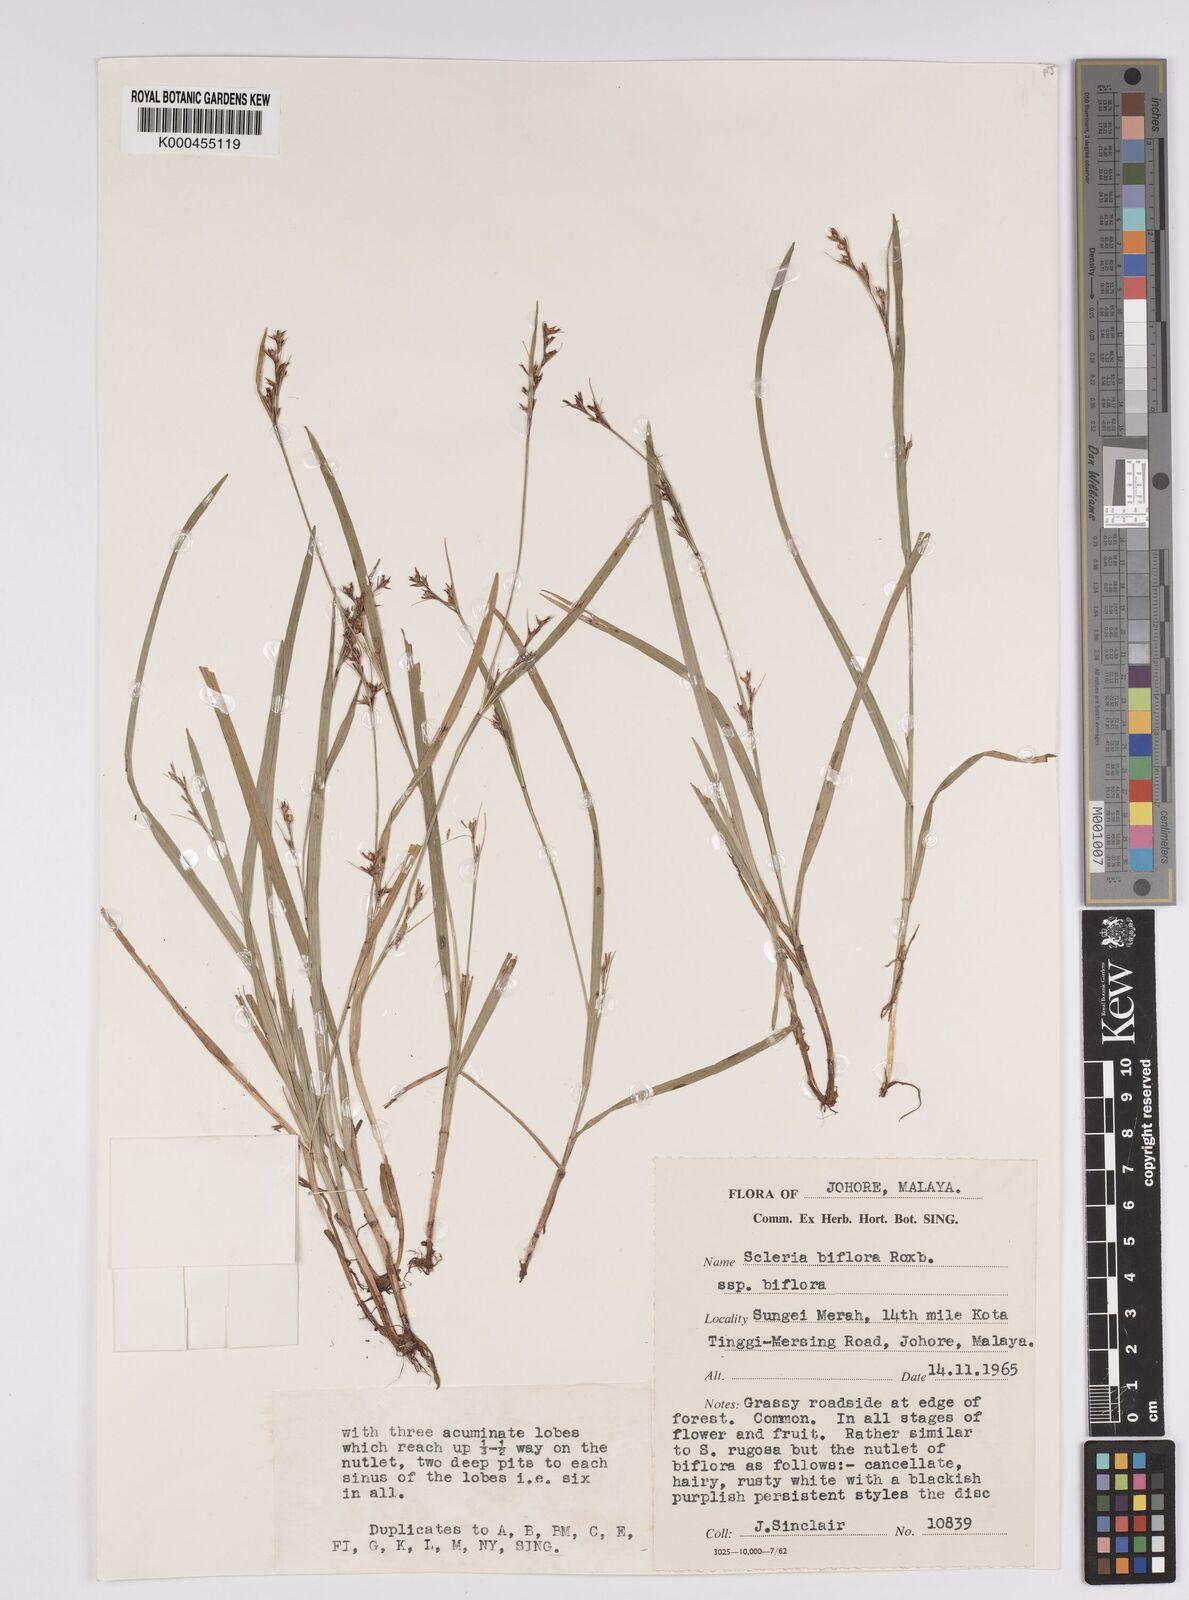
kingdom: Plantae
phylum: Tracheophyta
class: Liliopsida
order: Poales
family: Cyperaceae
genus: Scleria
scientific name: Scleria biflora
